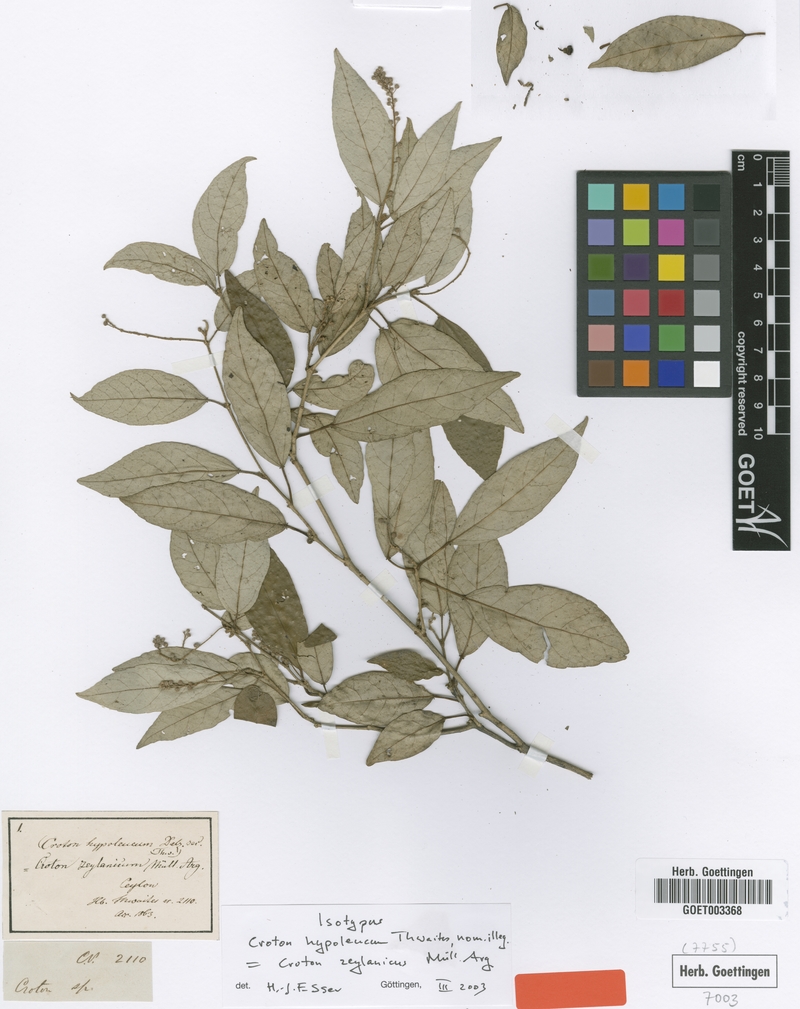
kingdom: Plantae
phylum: Tracheophyta
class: Magnoliopsida
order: Malpighiales
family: Euphorbiaceae
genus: Croton
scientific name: Croton zeylanicus
